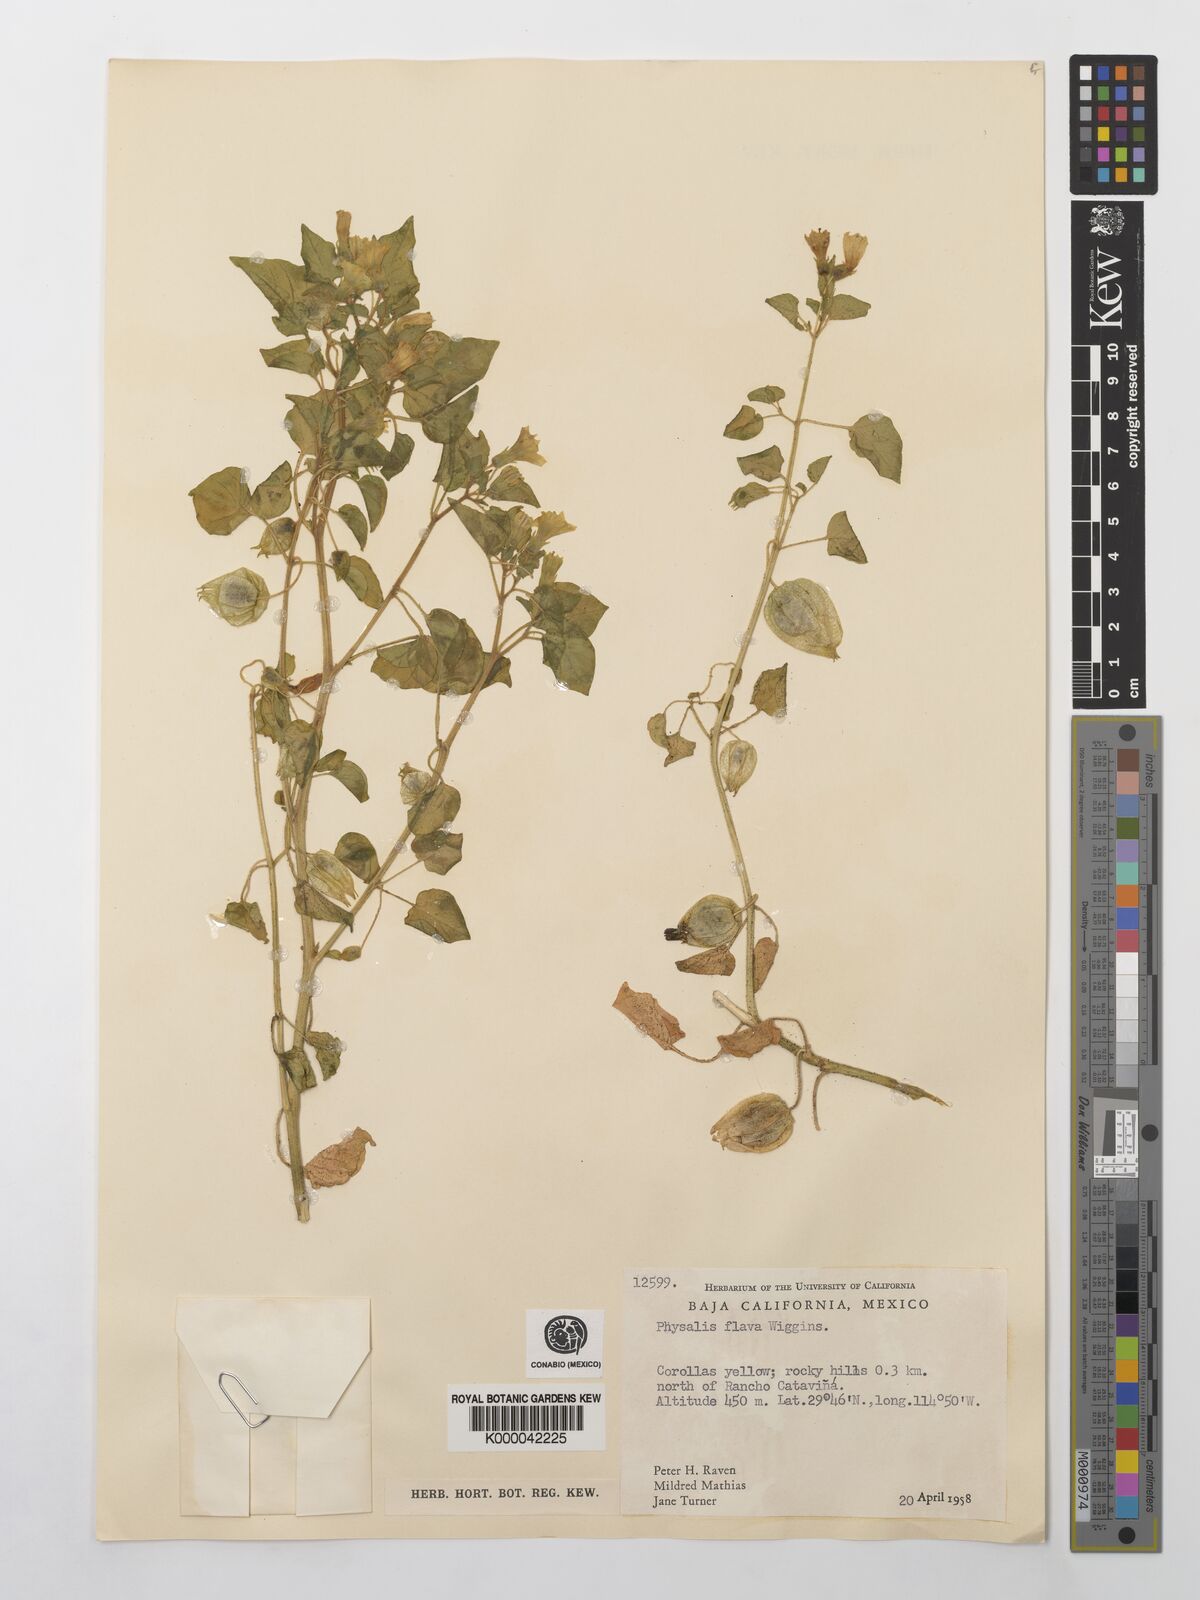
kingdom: Plantae
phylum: Tracheophyta
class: Magnoliopsida
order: Solanales
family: Solanaceae
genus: Physalis
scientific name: Physalis crassifolia
